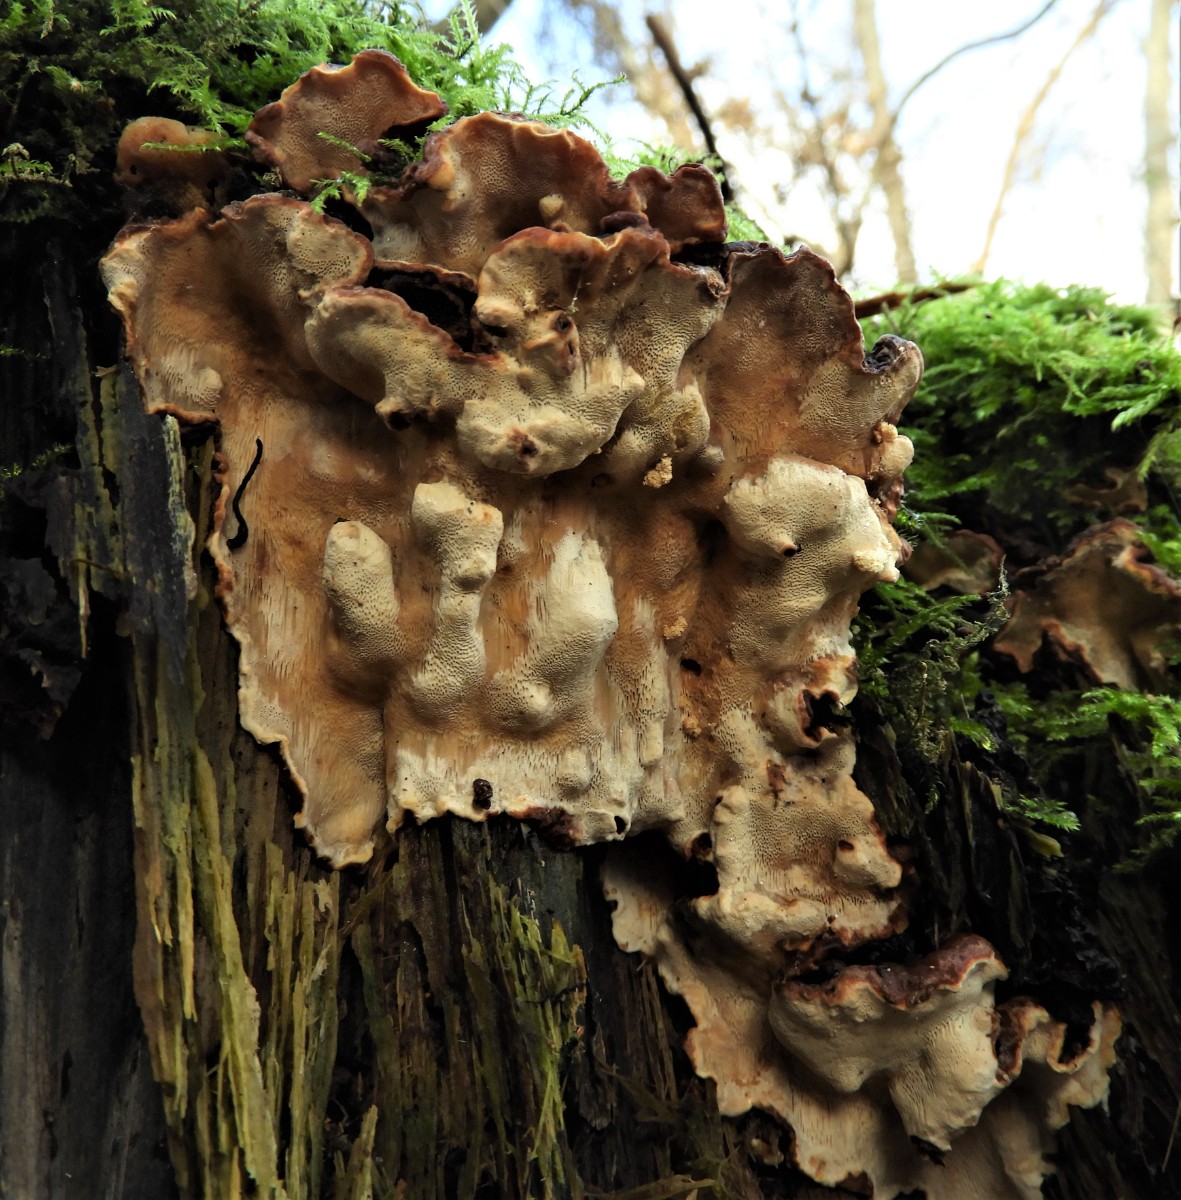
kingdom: Fungi
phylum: Basidiomycota
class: Agaricomycetes
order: Russulales
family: Bondarzewiaceae
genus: Heterobasidion
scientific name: Heterobasidion annosum
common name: almindelig rodfordærver
